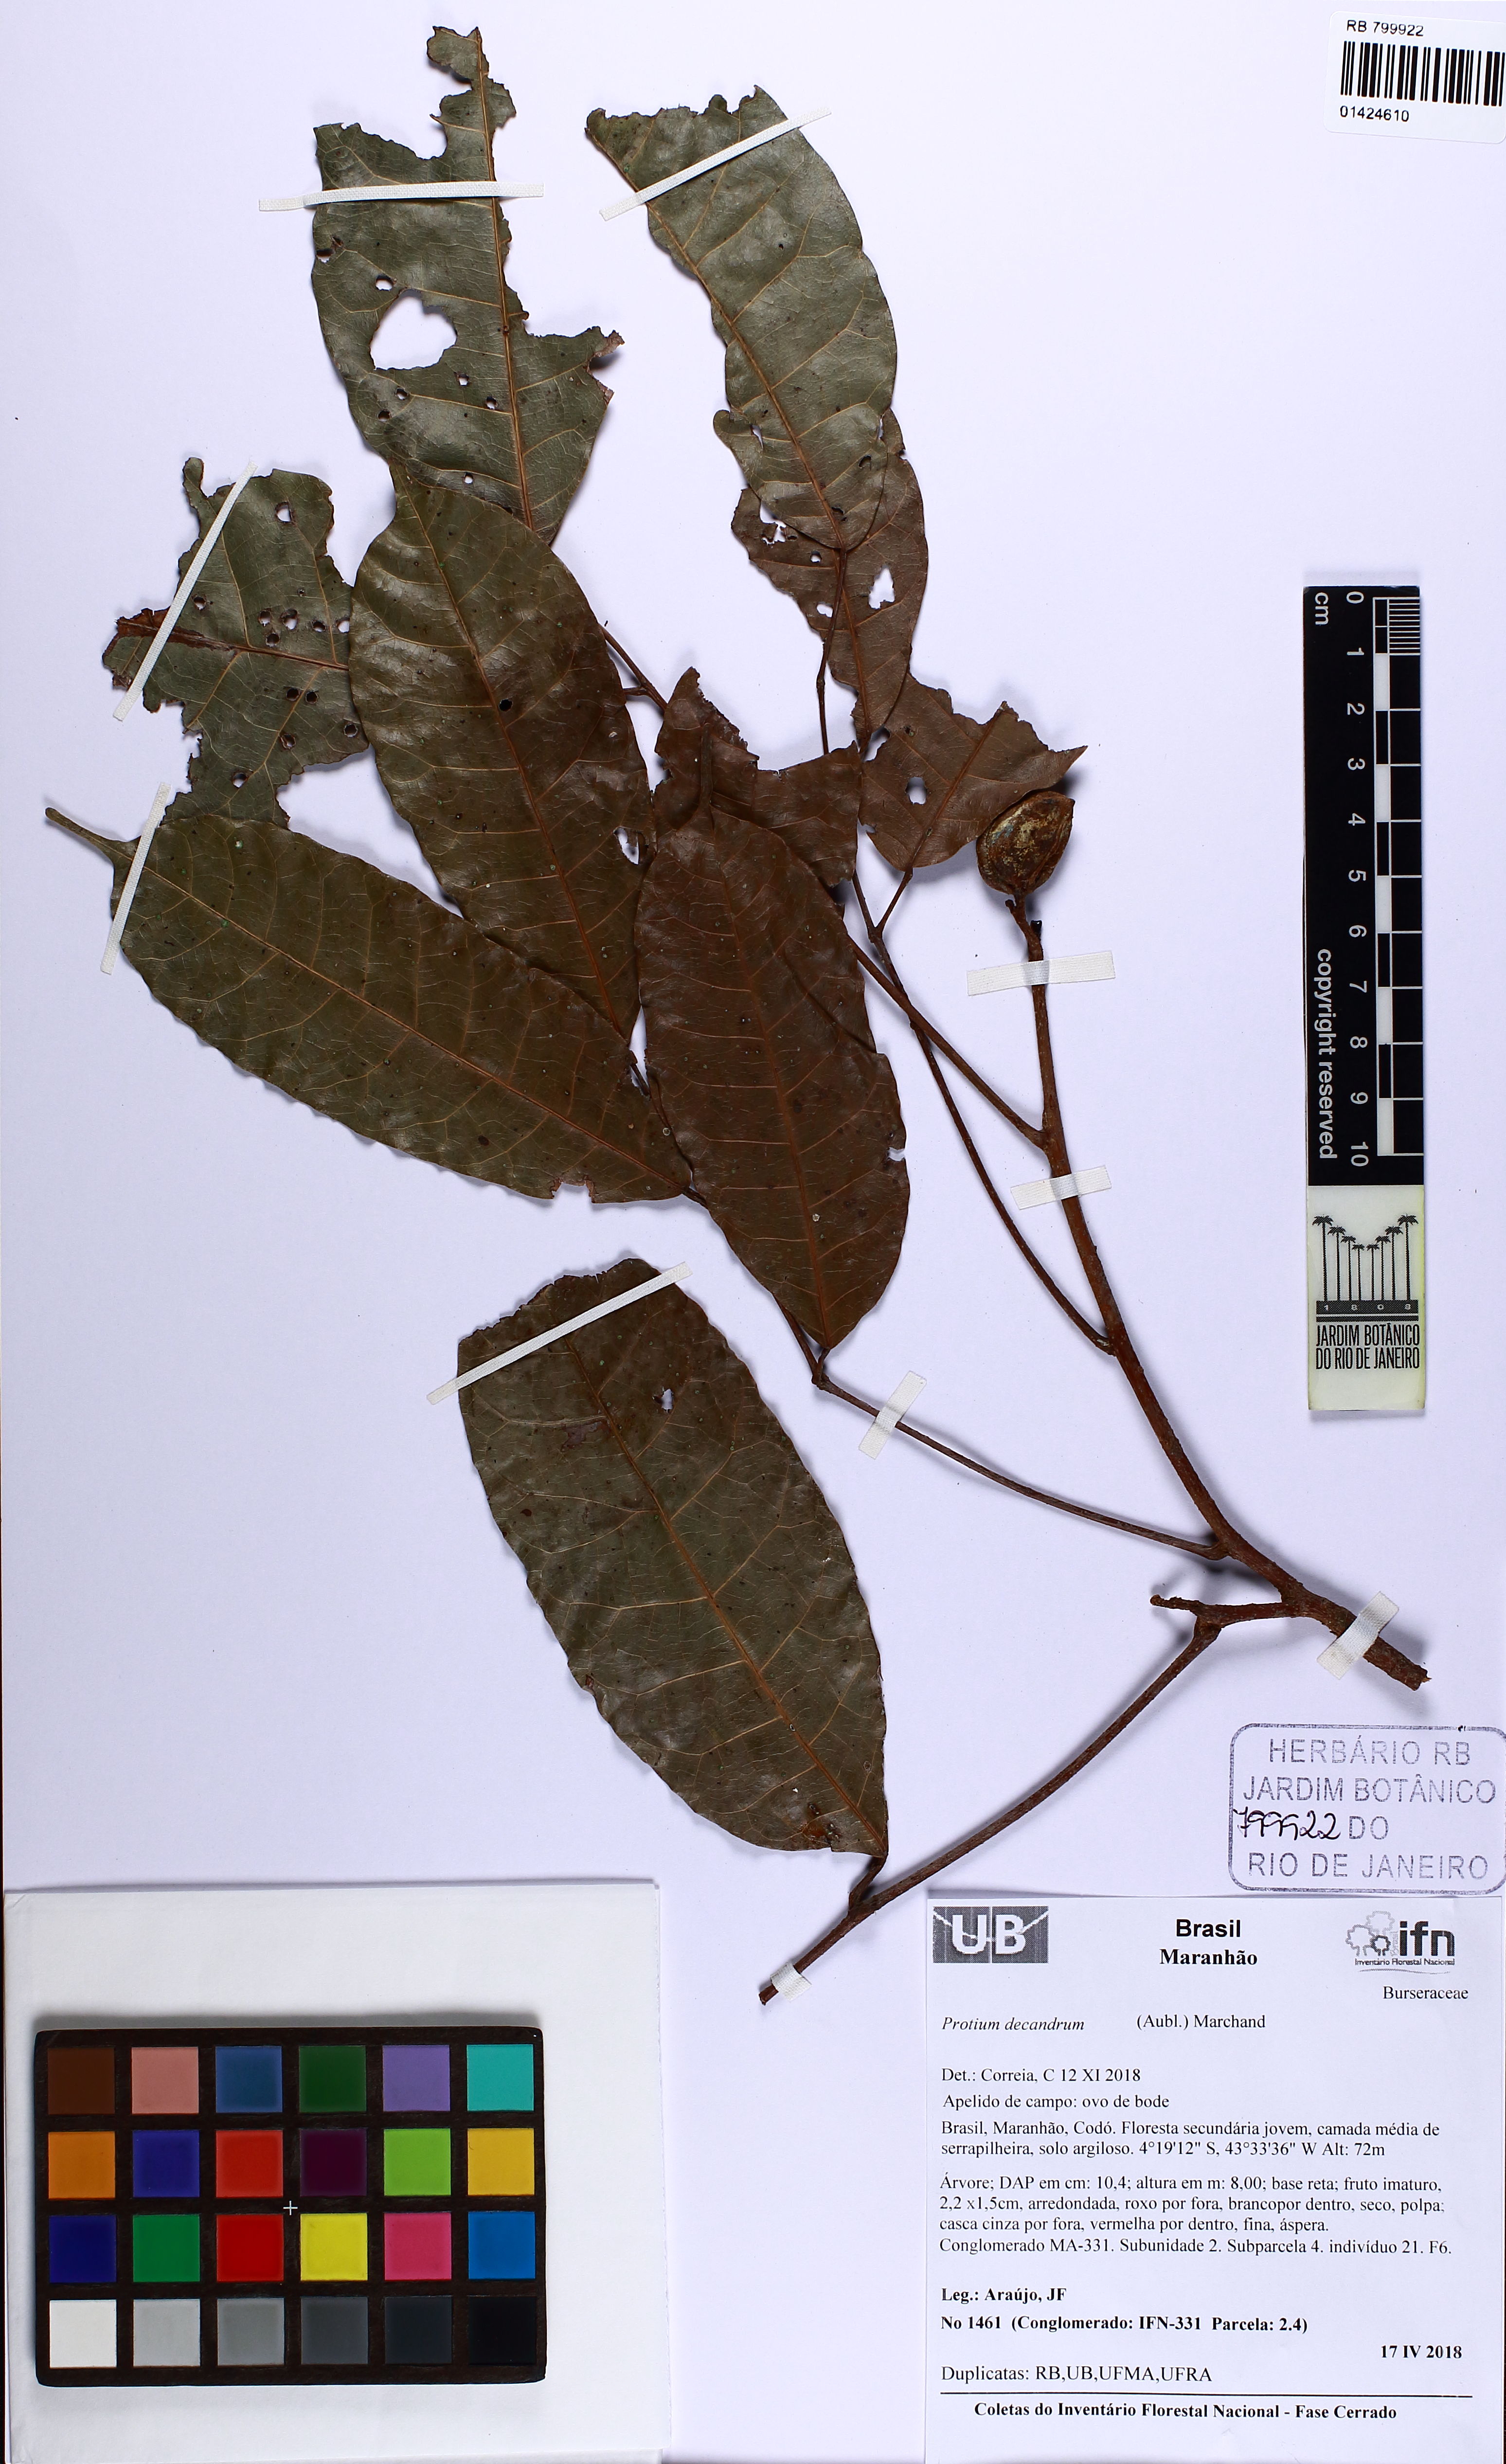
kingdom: Plantae
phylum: Tracheophyta
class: Magnoliopsida
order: Sapindales
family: Burseraceae
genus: Protium
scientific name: Protium decandrum
